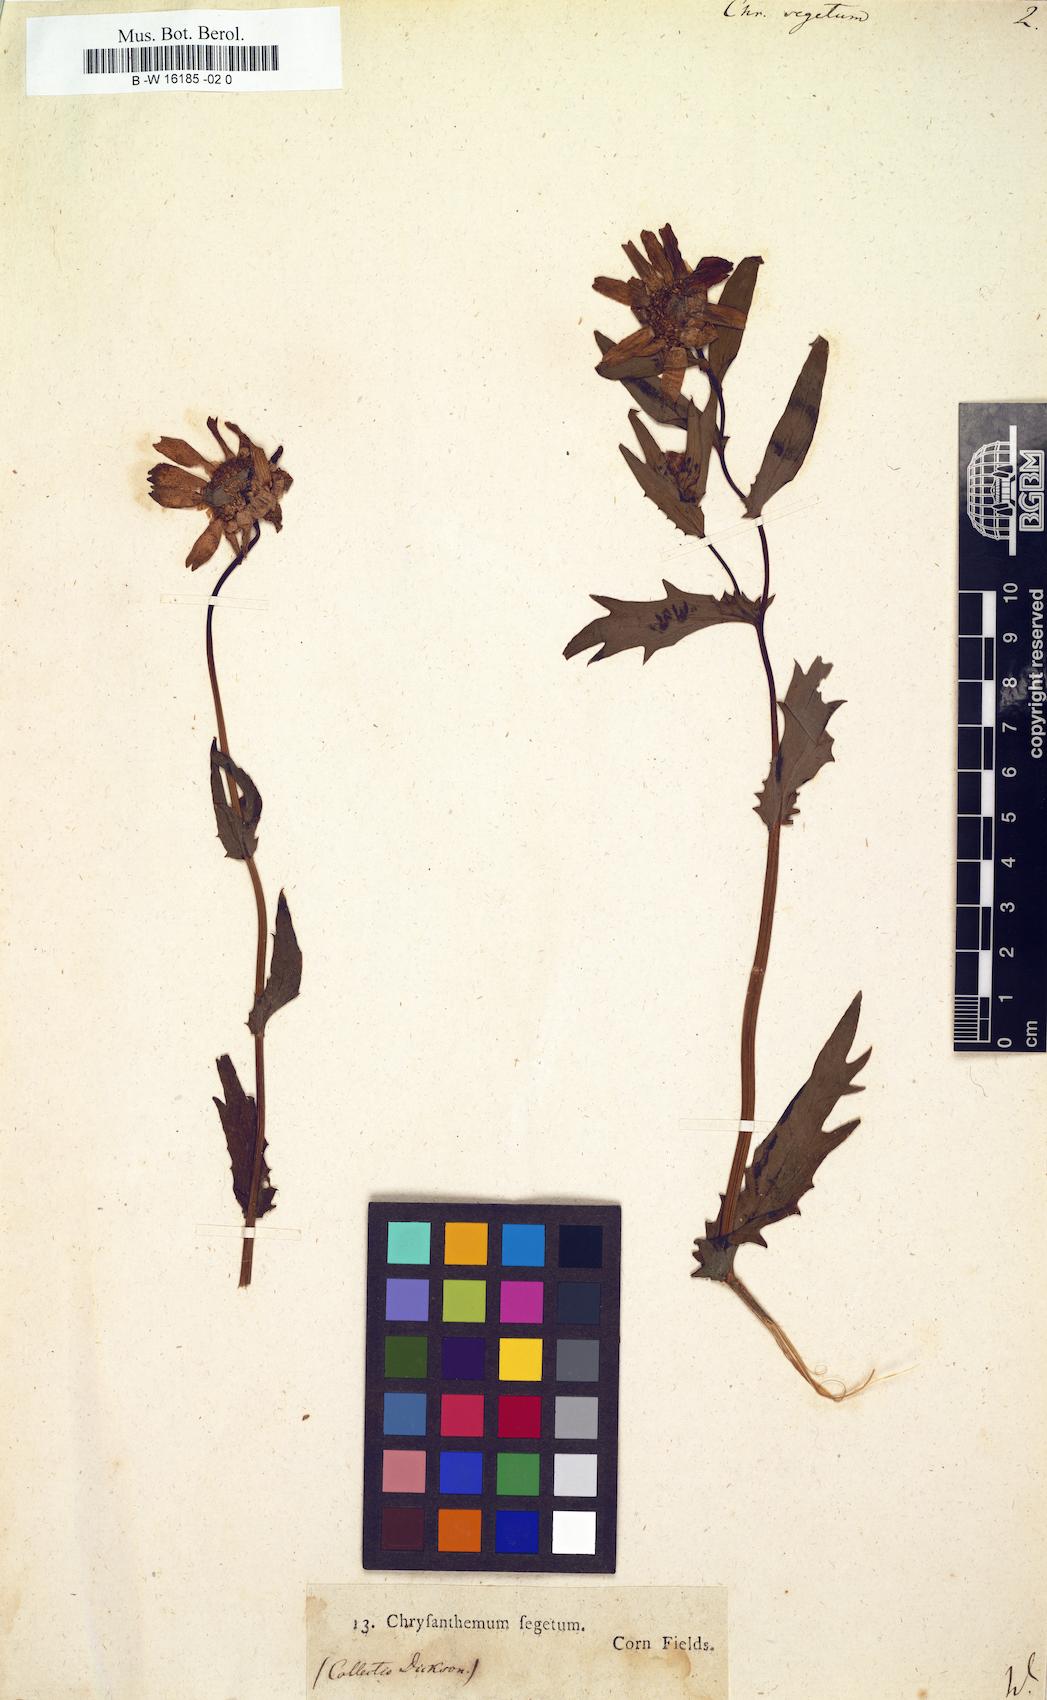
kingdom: Plantae
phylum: Tracheophyta
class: Magnoliopsida
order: Asterales
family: Asteraceae
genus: Chrysanthemum
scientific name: Chrysanthemum segetum
